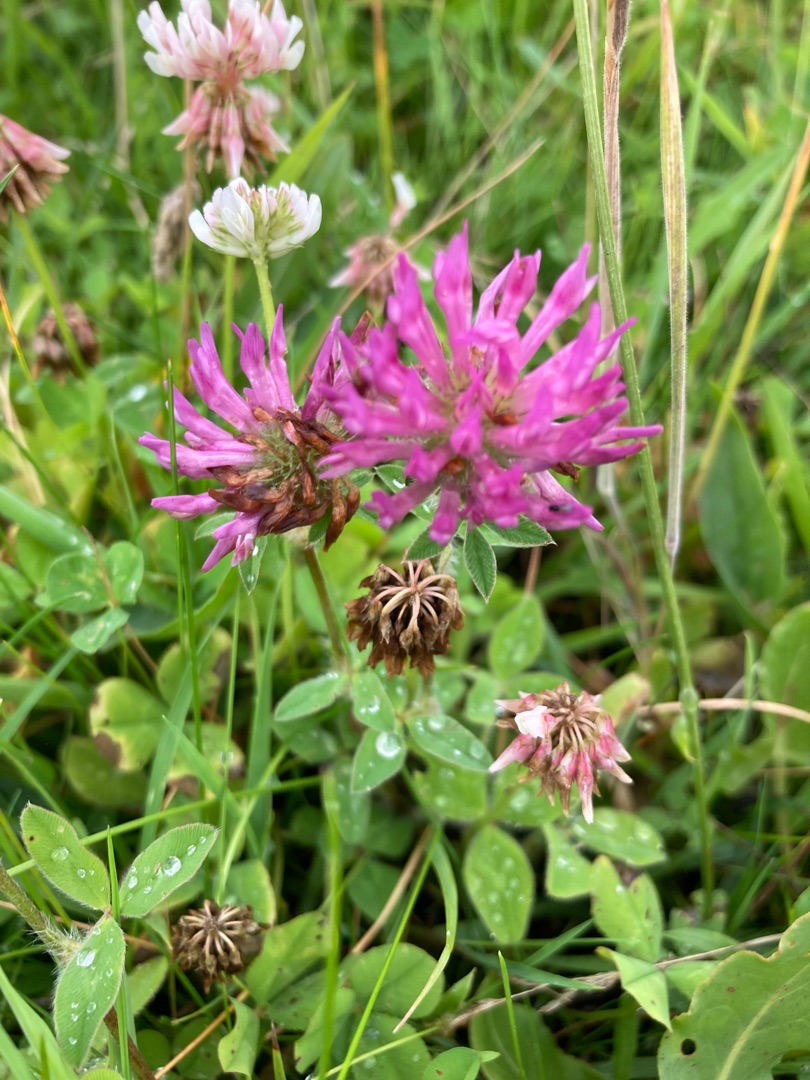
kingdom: Plantae
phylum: Tracheophyta
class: Magnoliopsida
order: Fabales
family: Fabaceae
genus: Trifolium
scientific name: Trifolium pratense
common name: Rød-kløver
